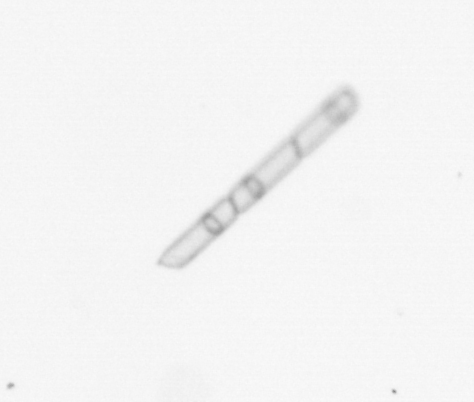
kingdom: Chromista
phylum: Ochrophyta
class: Bacillariophyceae
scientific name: Bacillariophyceae
